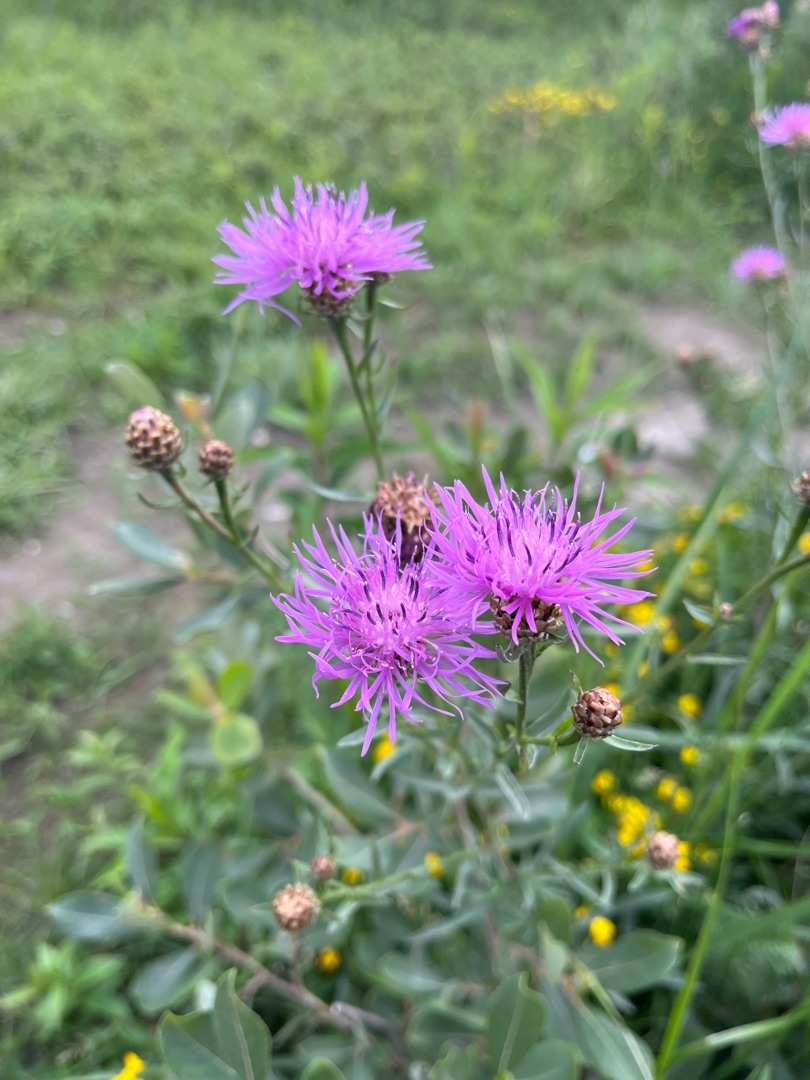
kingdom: Plantae
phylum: Tracheophyta
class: Magnoliopsida
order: Asterales
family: Asteraceae
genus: Centaurea
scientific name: Centaurea jacea
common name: Almindelig knopurt
